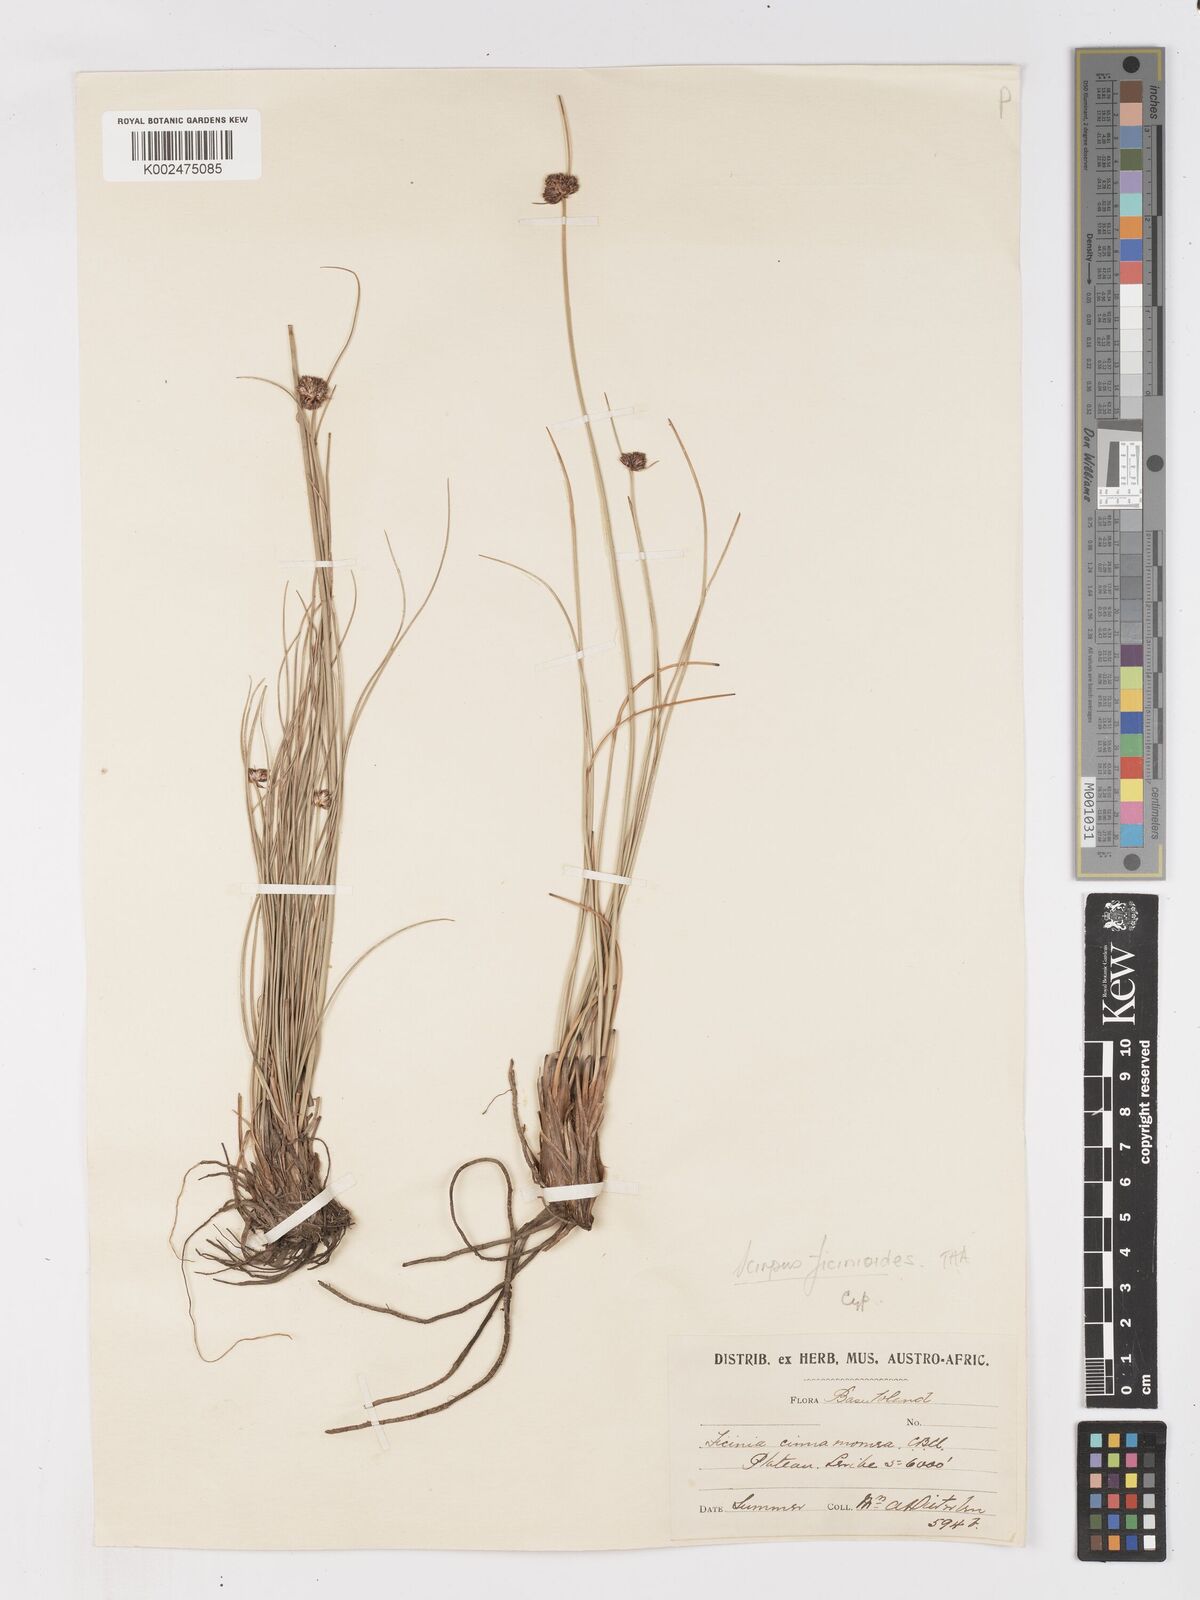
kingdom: Plantae
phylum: Tracheophyta
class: Liliopsida
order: Poales
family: Cyperaceae
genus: Ficinia
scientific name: Ficinia
